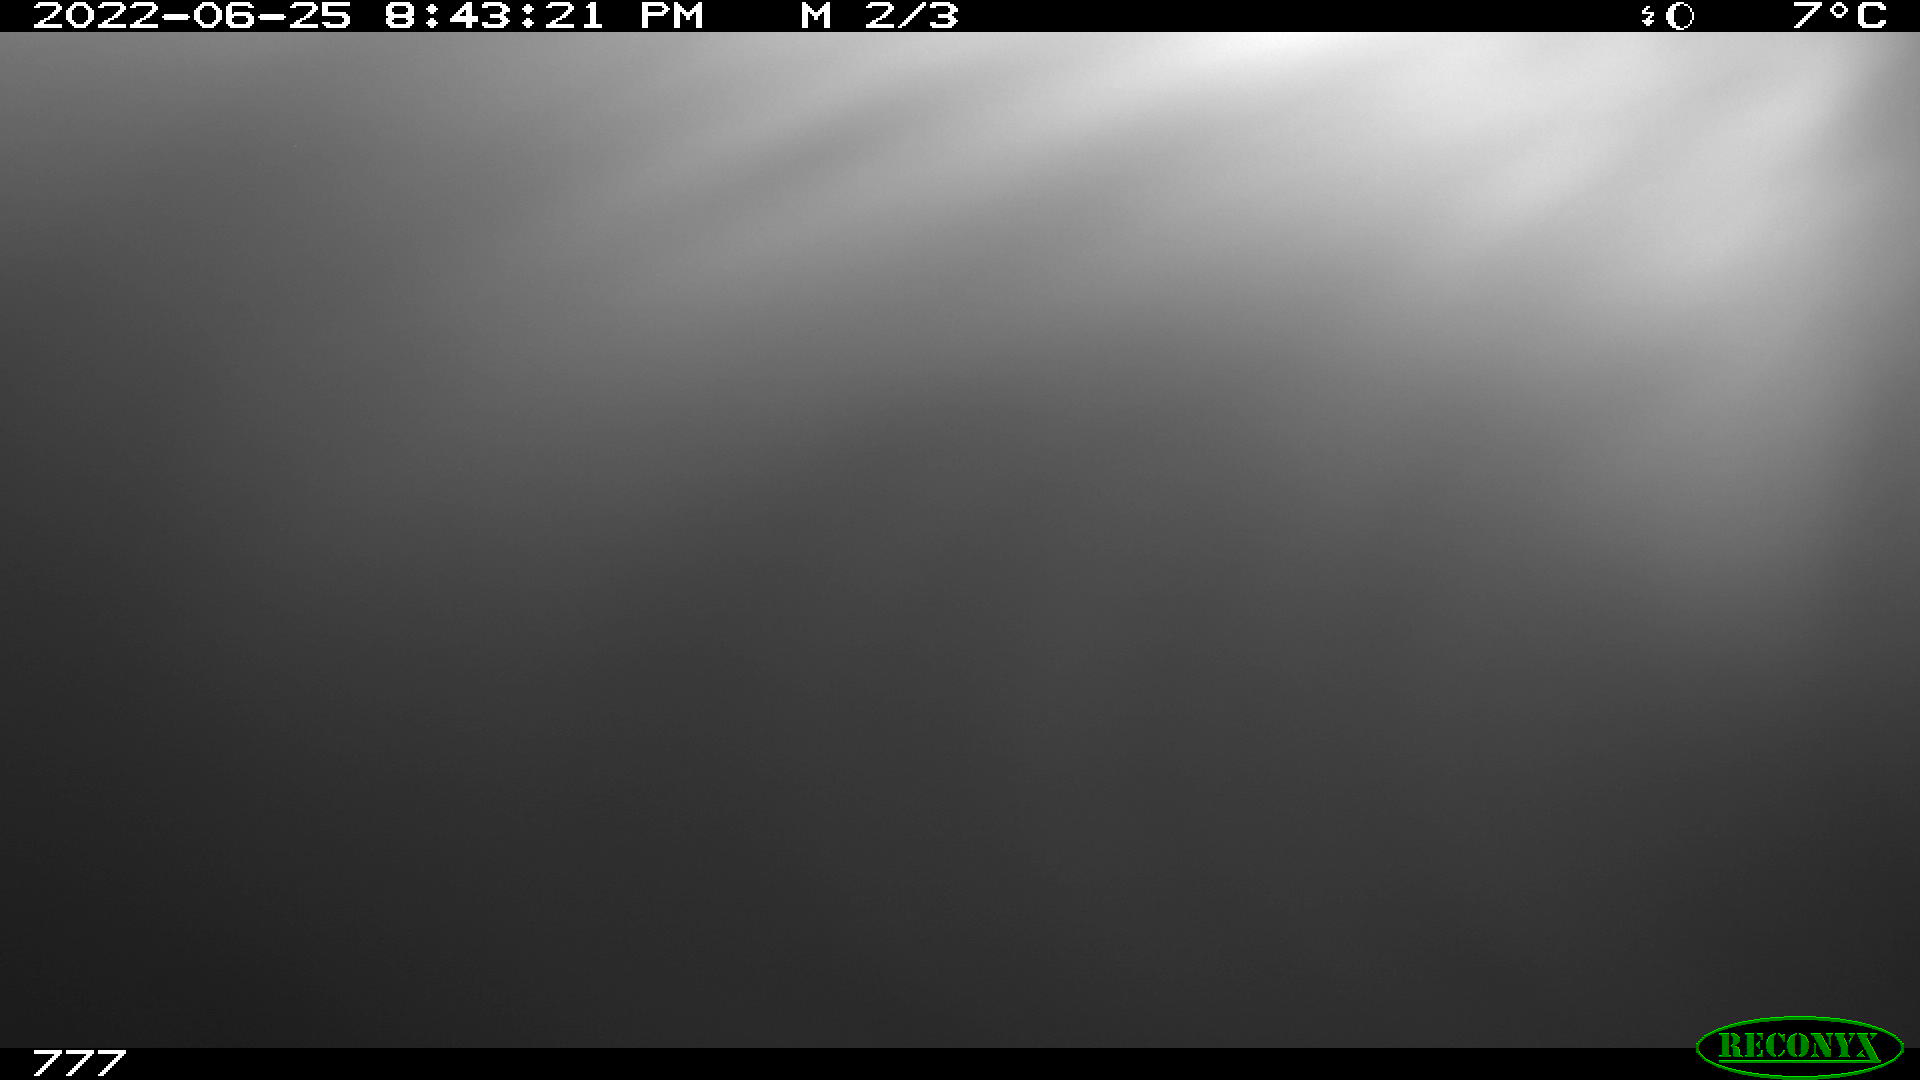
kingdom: Animalia
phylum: Chordata
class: Mammalia
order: Artiodactyla
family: Bovidae
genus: Bos
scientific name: Bos taurus
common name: Domesticated cattle
